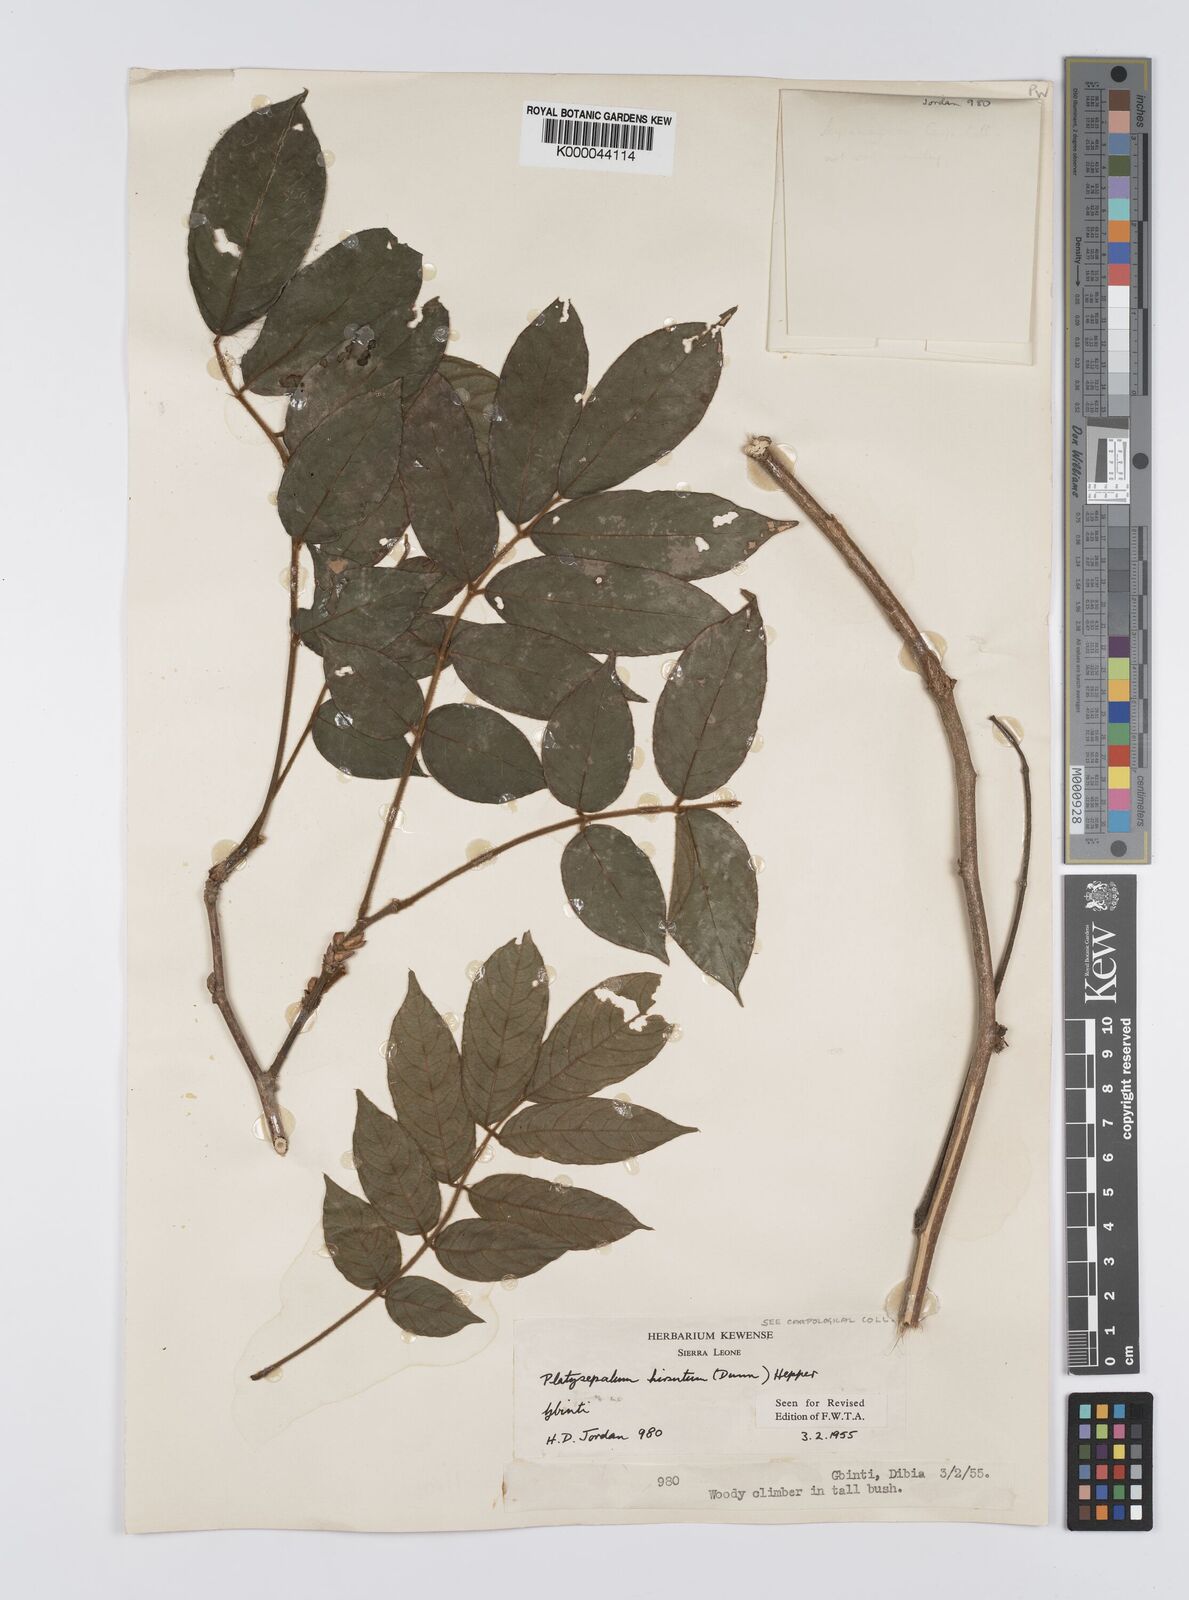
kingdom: Plantae
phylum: Tracheophyta
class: Magnoliopsida
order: Fabales
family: Fabaceae
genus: Platysepalum
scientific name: Platysepalum hirsutum
